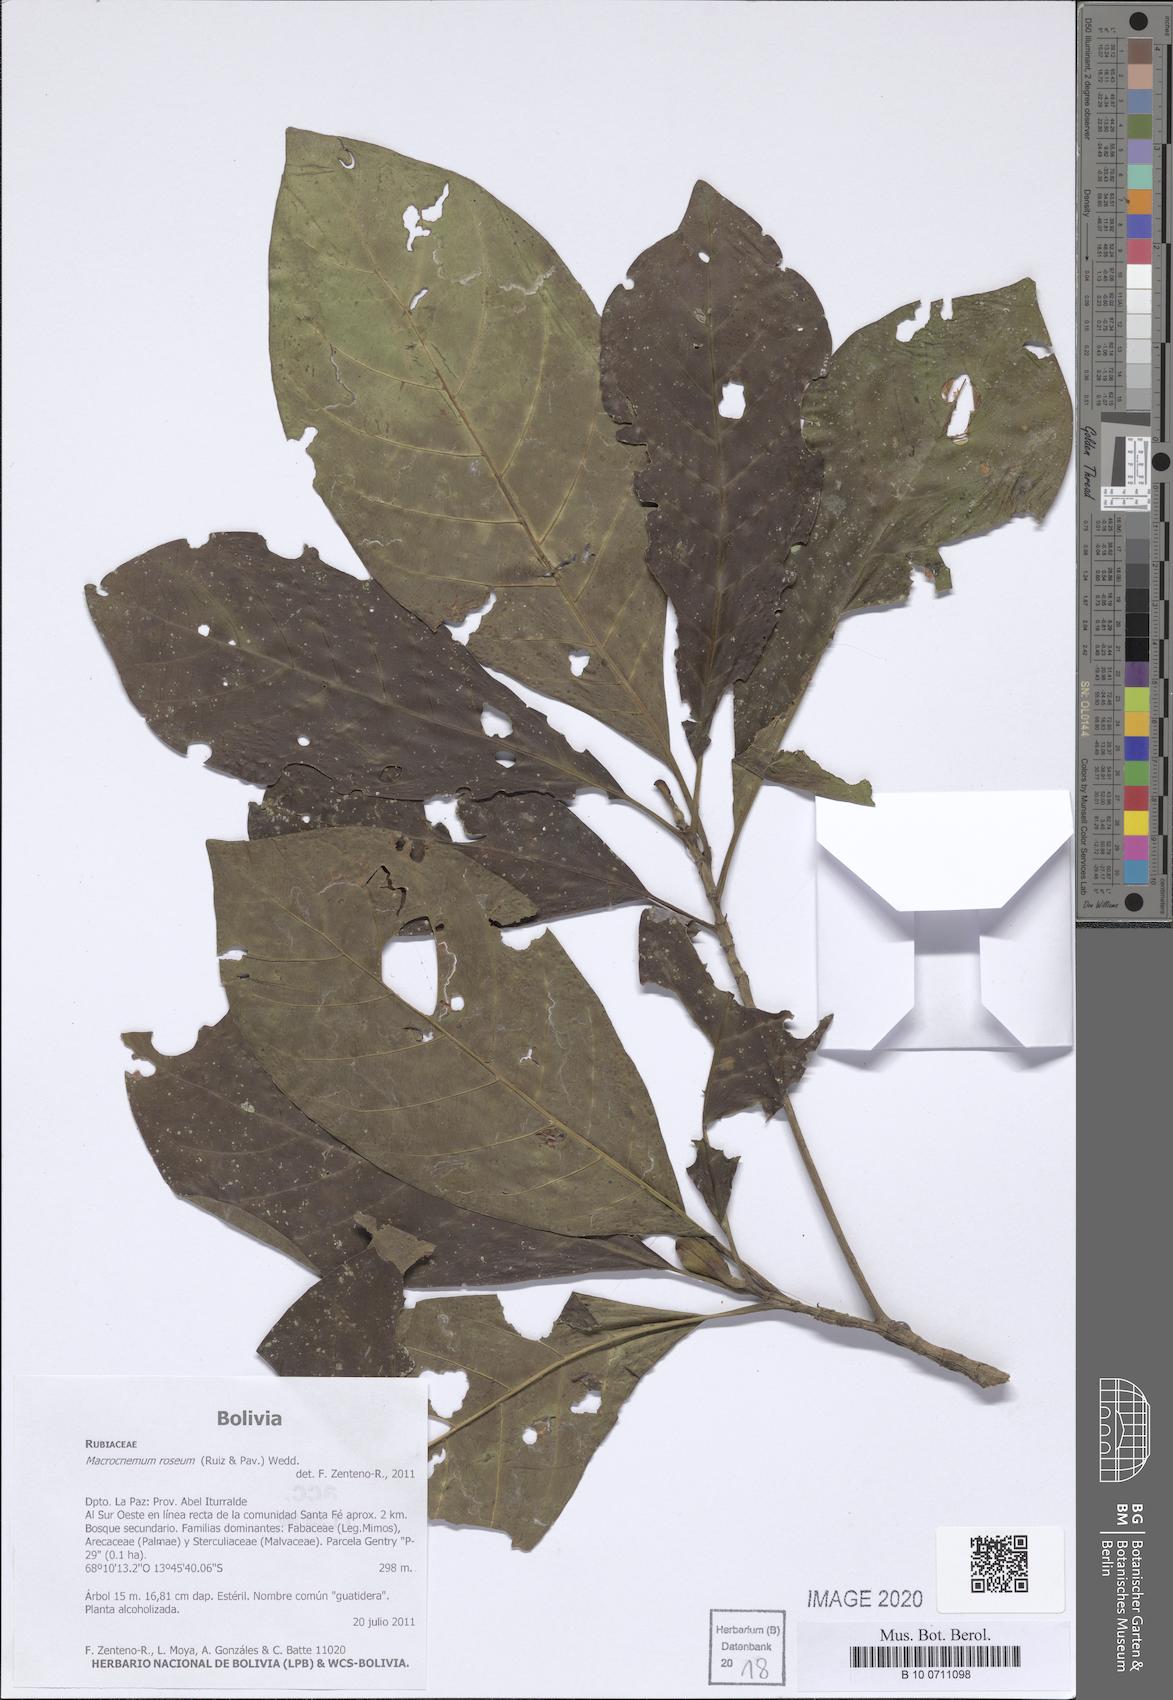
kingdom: Plantae
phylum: Tracheophyta
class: Magnoliopsida
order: Gentianales
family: Rubiaceae
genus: Macrocnemum
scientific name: Macrocnemum roseum
